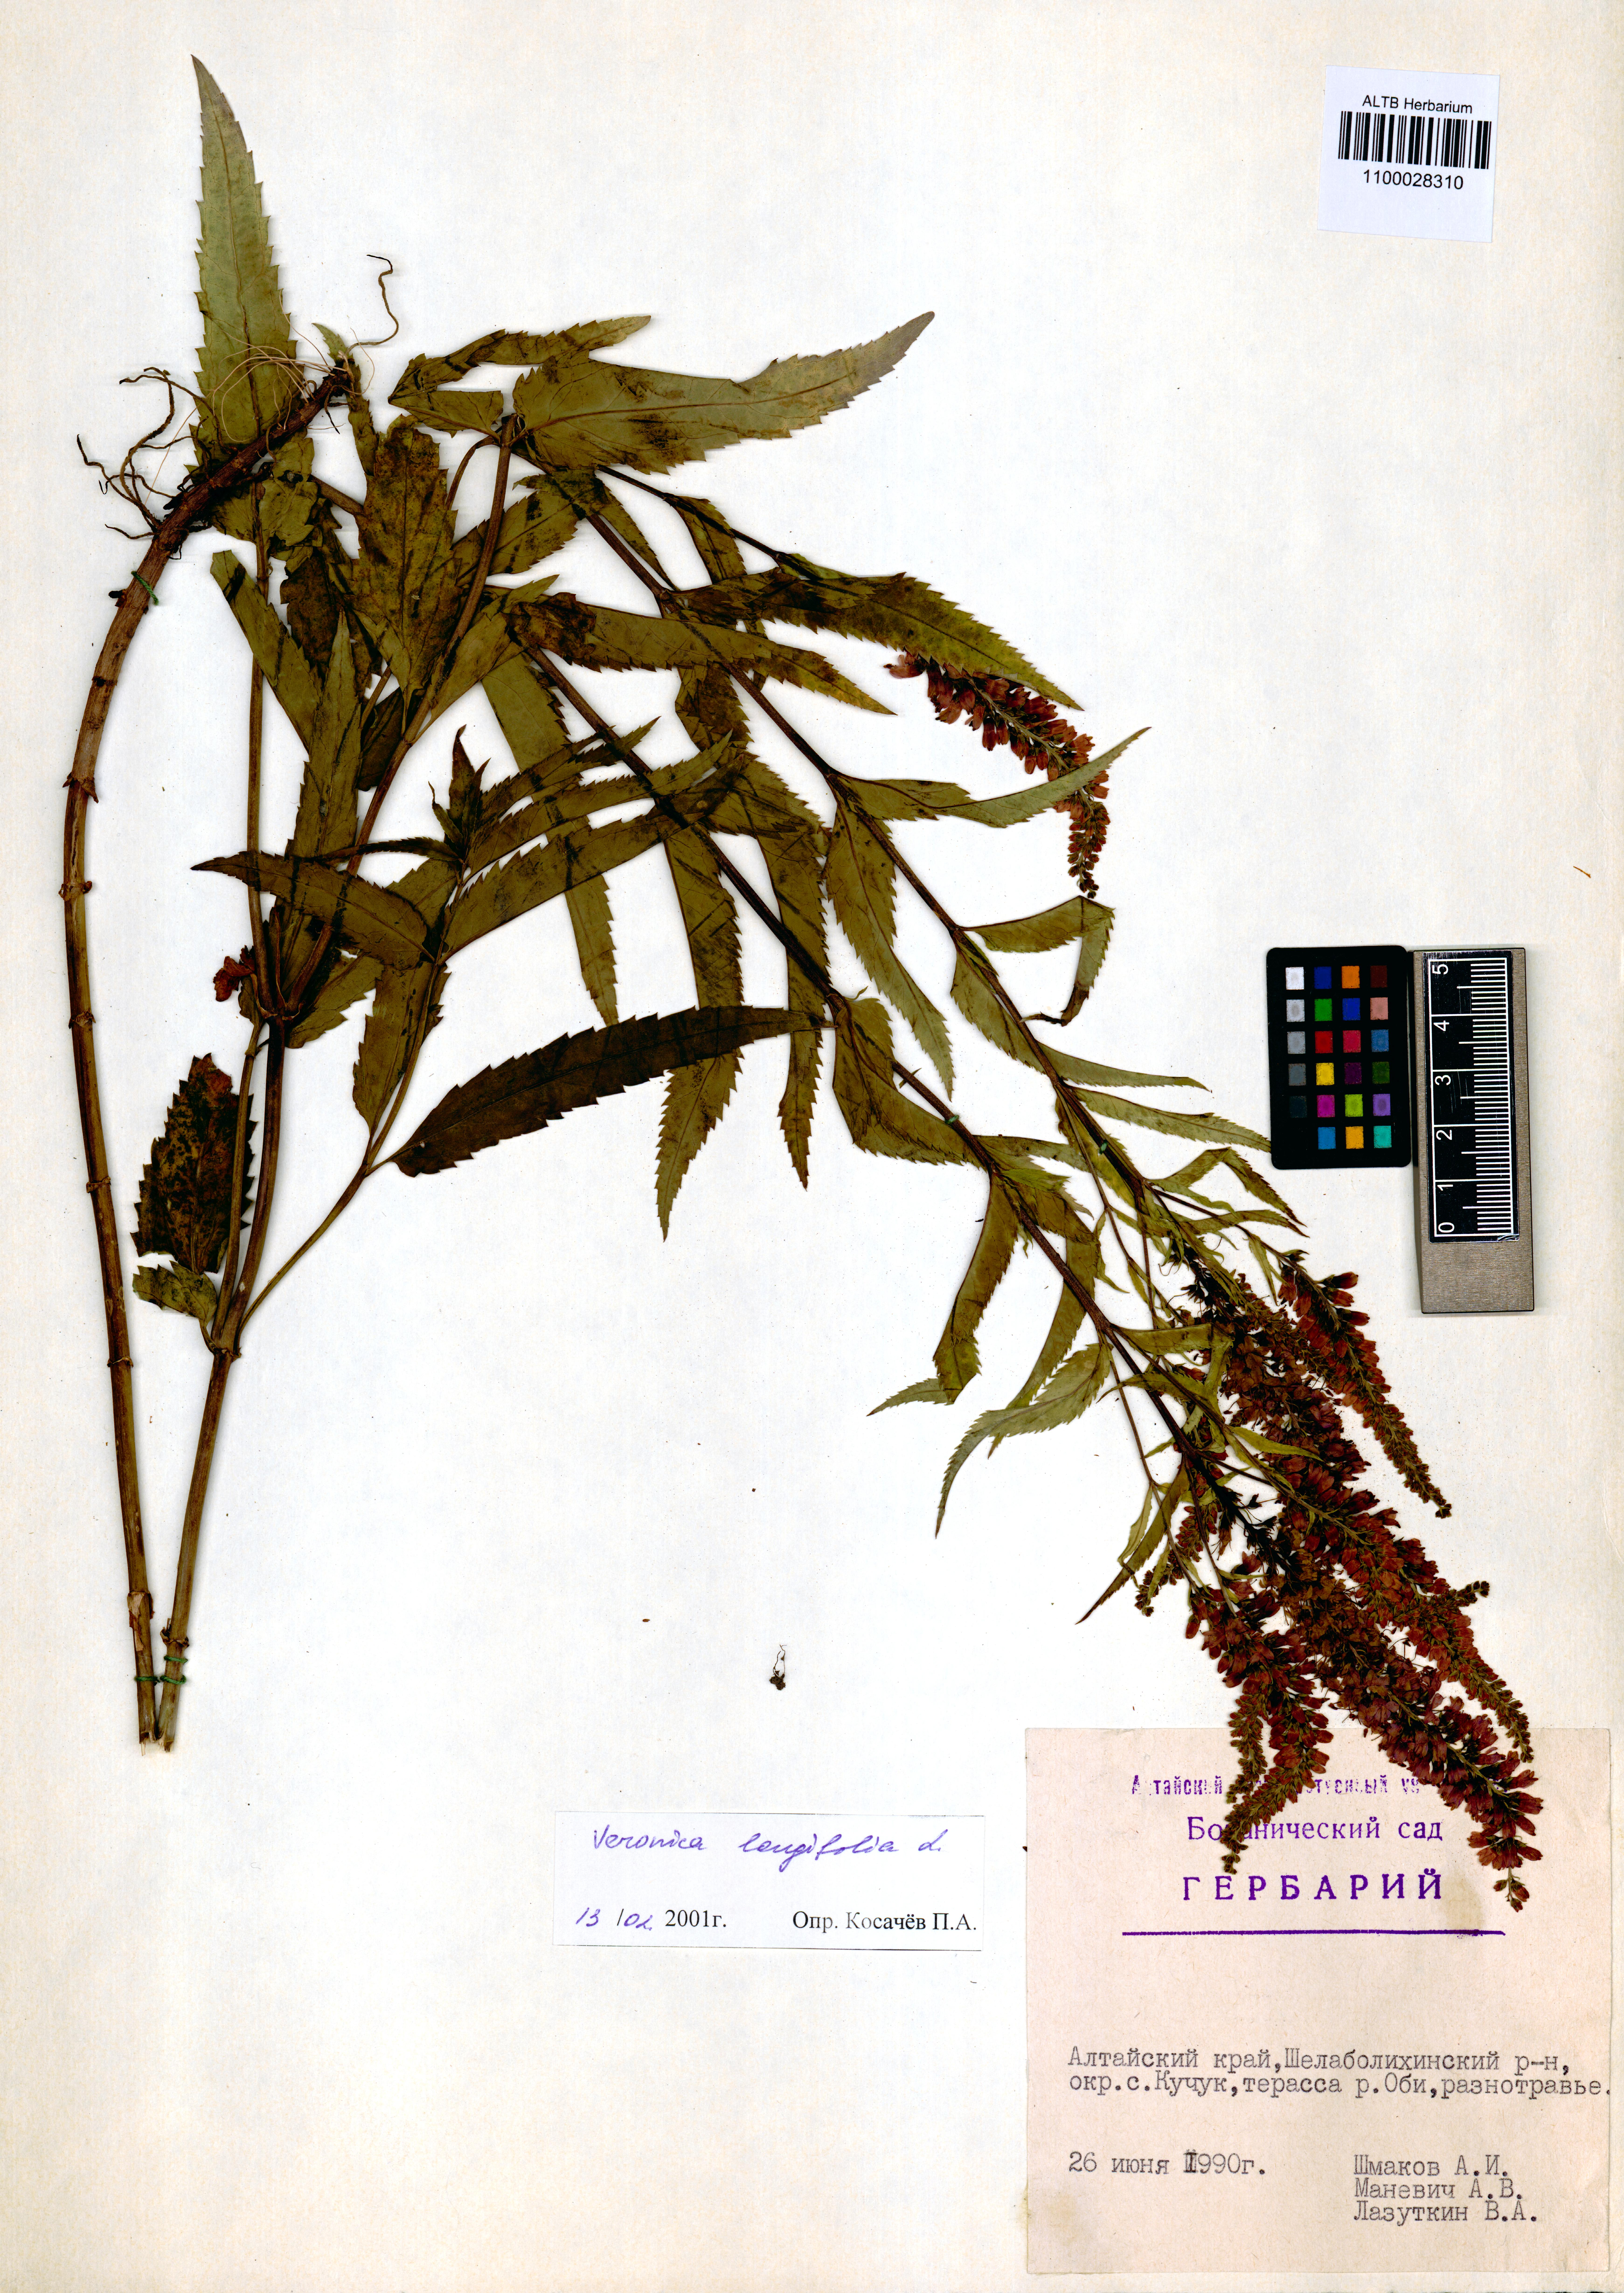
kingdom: Plantae
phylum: Tracheophyta
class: Magnoliopsida
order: Lamiales
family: Plantaginaceae
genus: Veronica
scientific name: Veronica longifolia
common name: Garden speedwell
